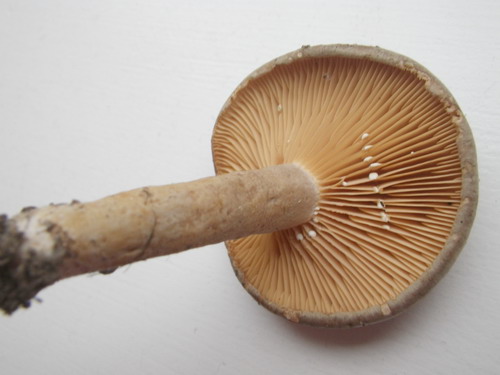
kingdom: Fungi
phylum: Basidiomycota
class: Agaricomycetes
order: Russulales
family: Russulaceae
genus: Lactarius
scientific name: Lactarius pyrogalus
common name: hassel-mælkehat
